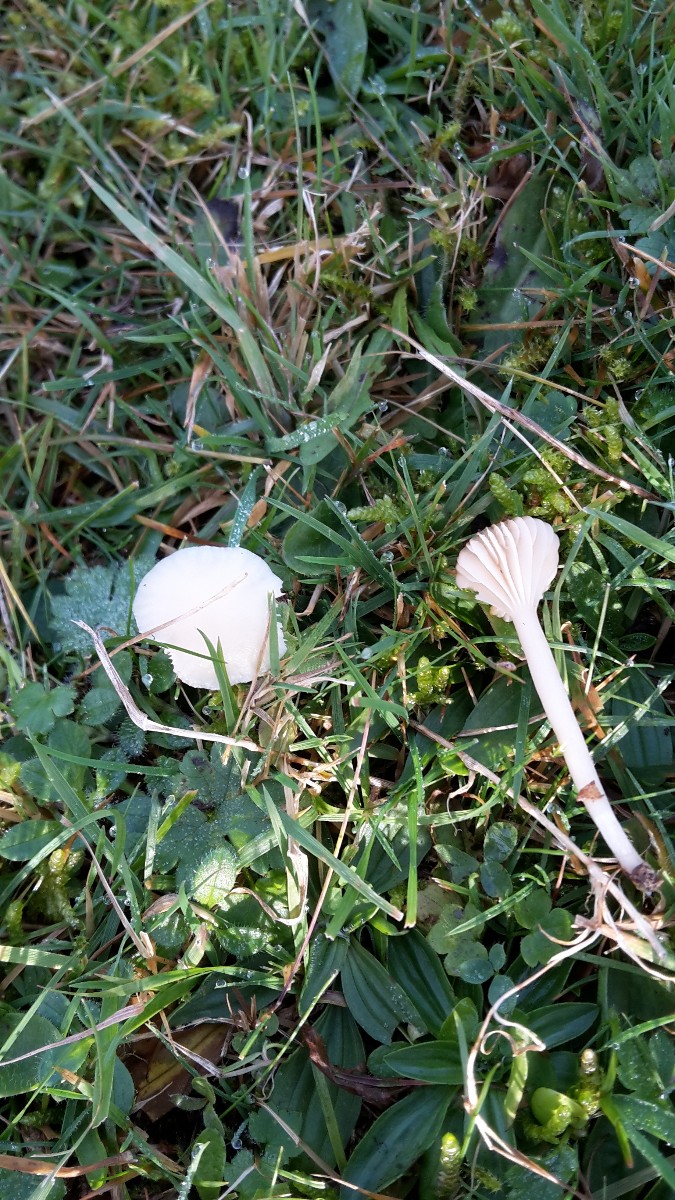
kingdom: Fungi
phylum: Basidiomycota
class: Agaricomycetes
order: Agaricales
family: Hygrophoraceae
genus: Cuphophyllus
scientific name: Cuphophyllus virgineus
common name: snehvid vokshat
